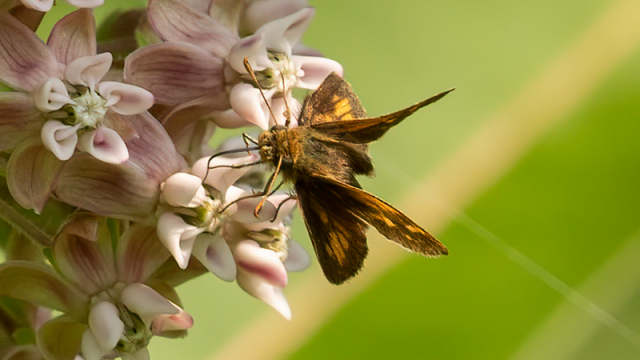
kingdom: Animalia
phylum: Arthropoda
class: Insecta
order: Lepidoptera
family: Hesperiidae
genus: Euphyes
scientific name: Euphyes conspicua
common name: Black Dash
